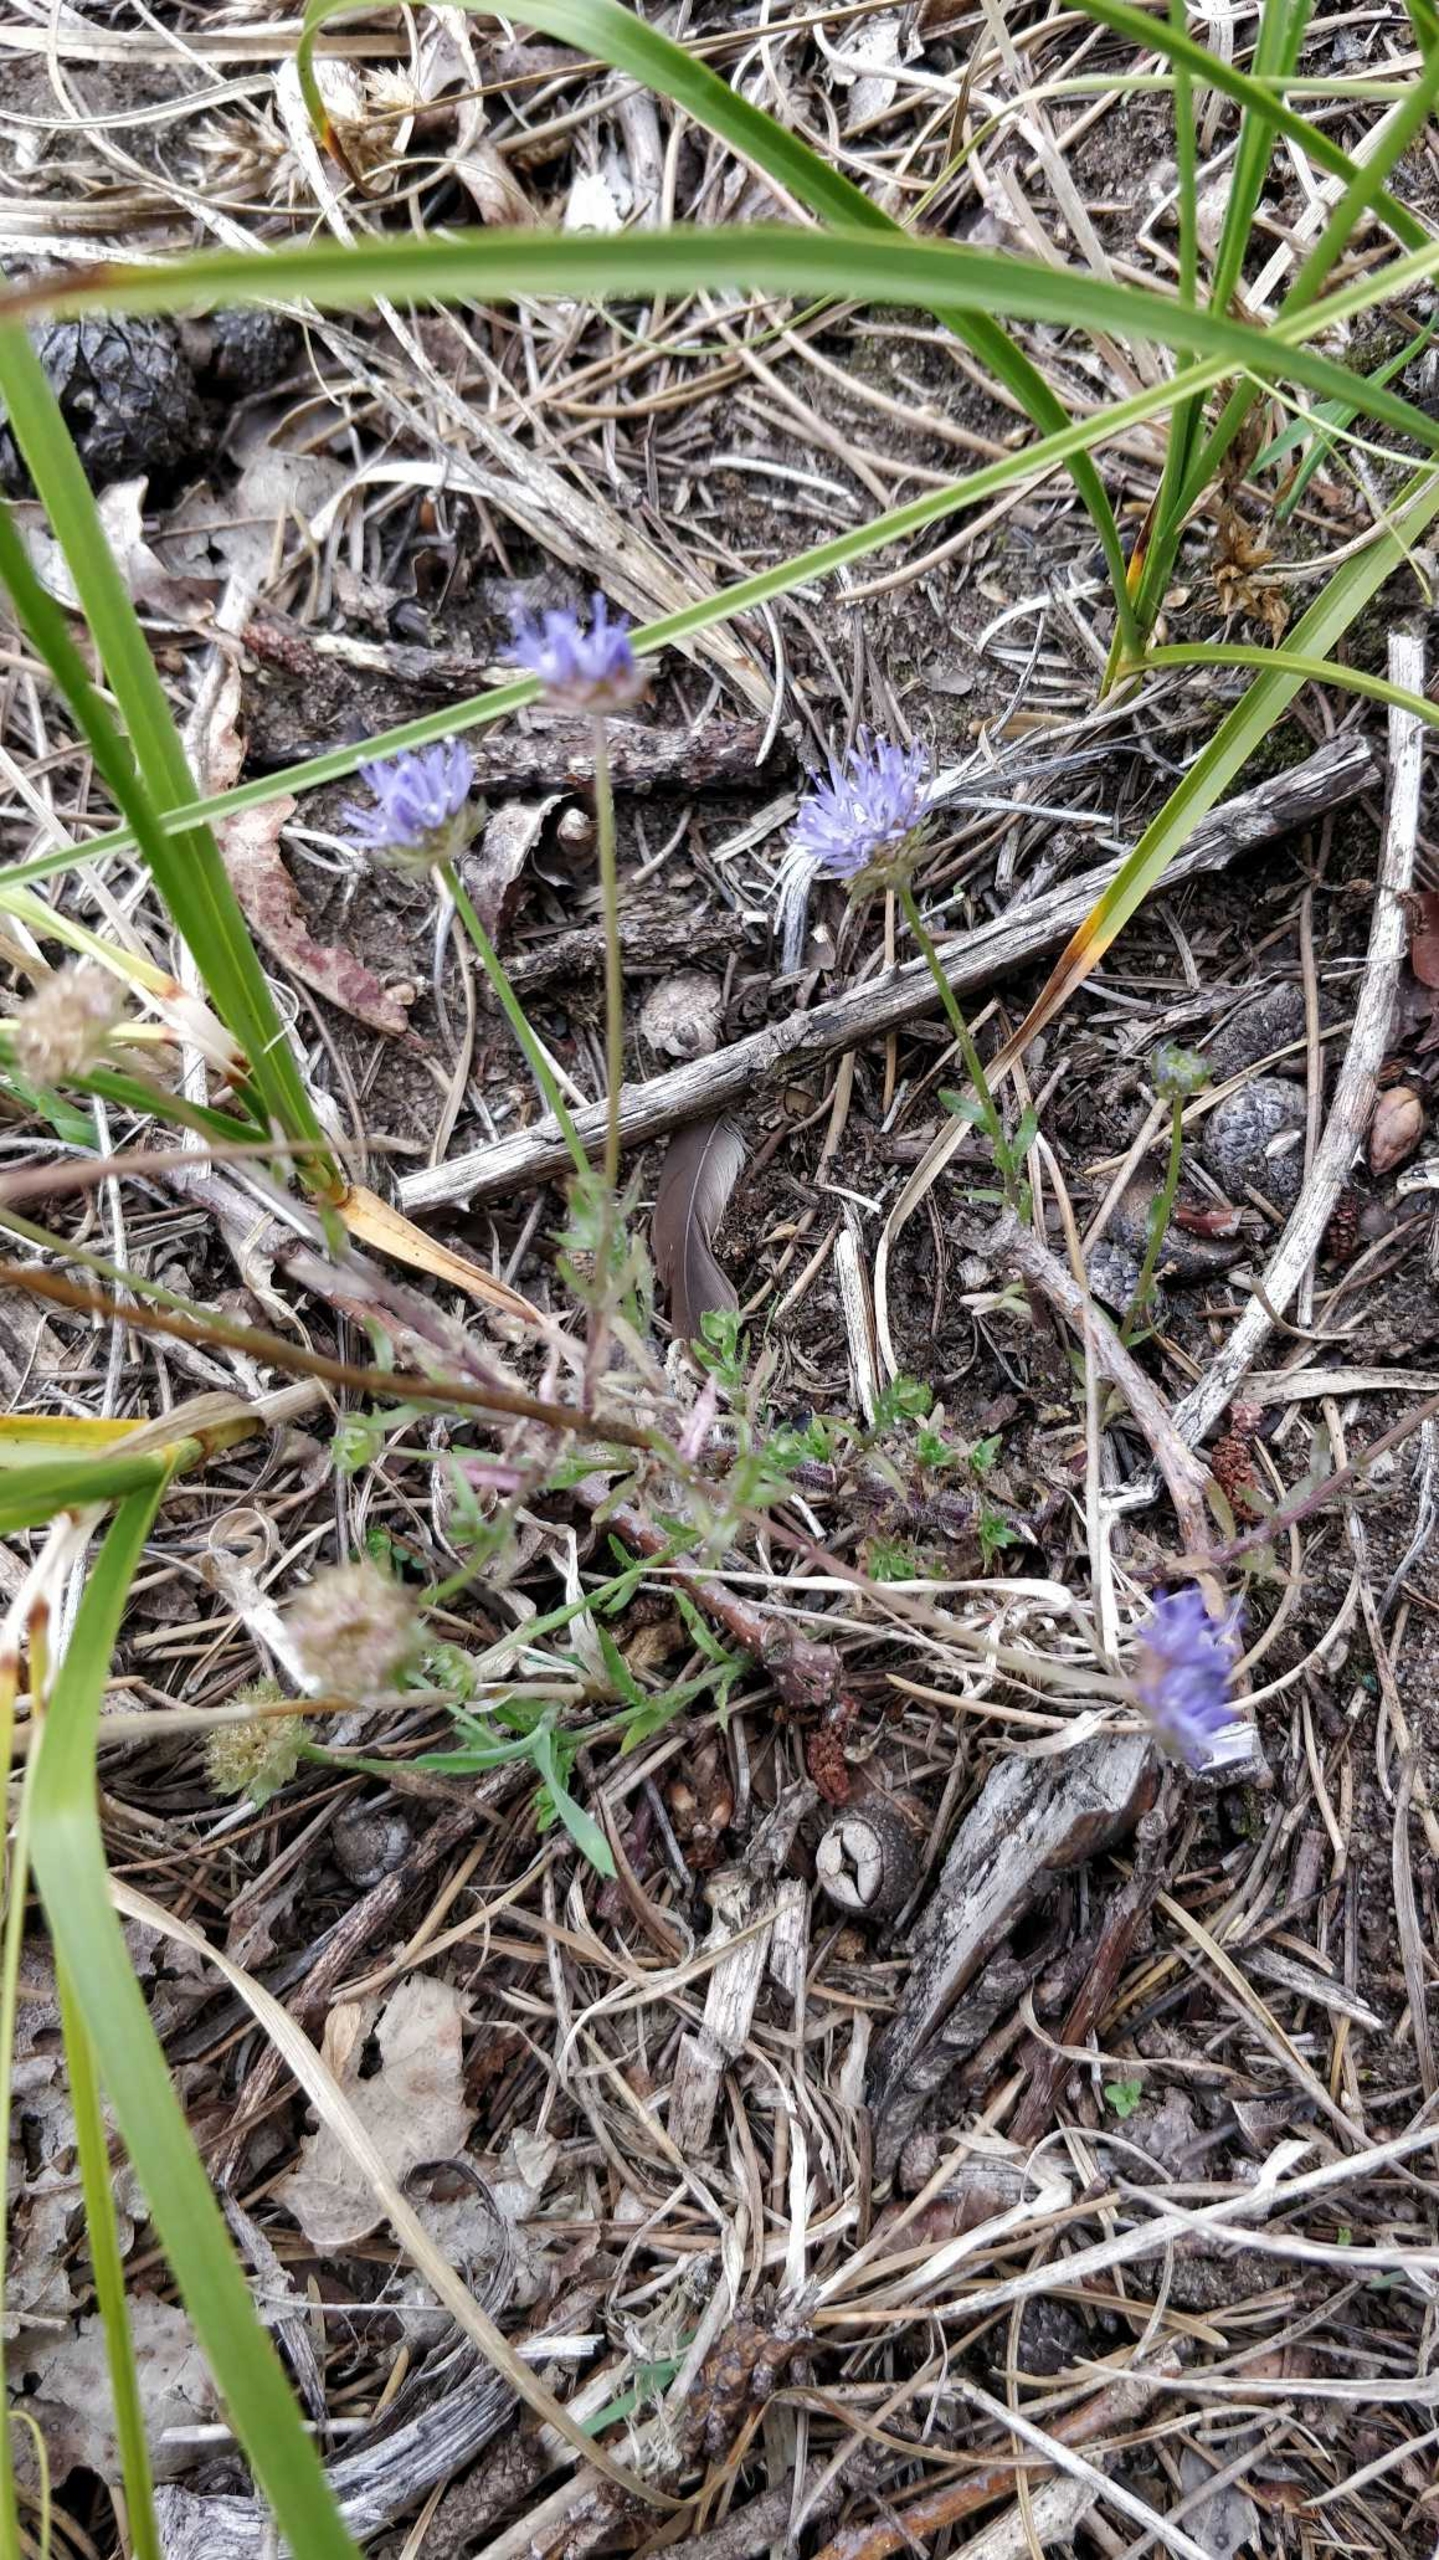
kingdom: Plantae
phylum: Tracheophyta
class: Magnoliopsida
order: Asterales
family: Campanulaceae
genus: Jasione
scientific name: Jasione montana
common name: Blåmunke
